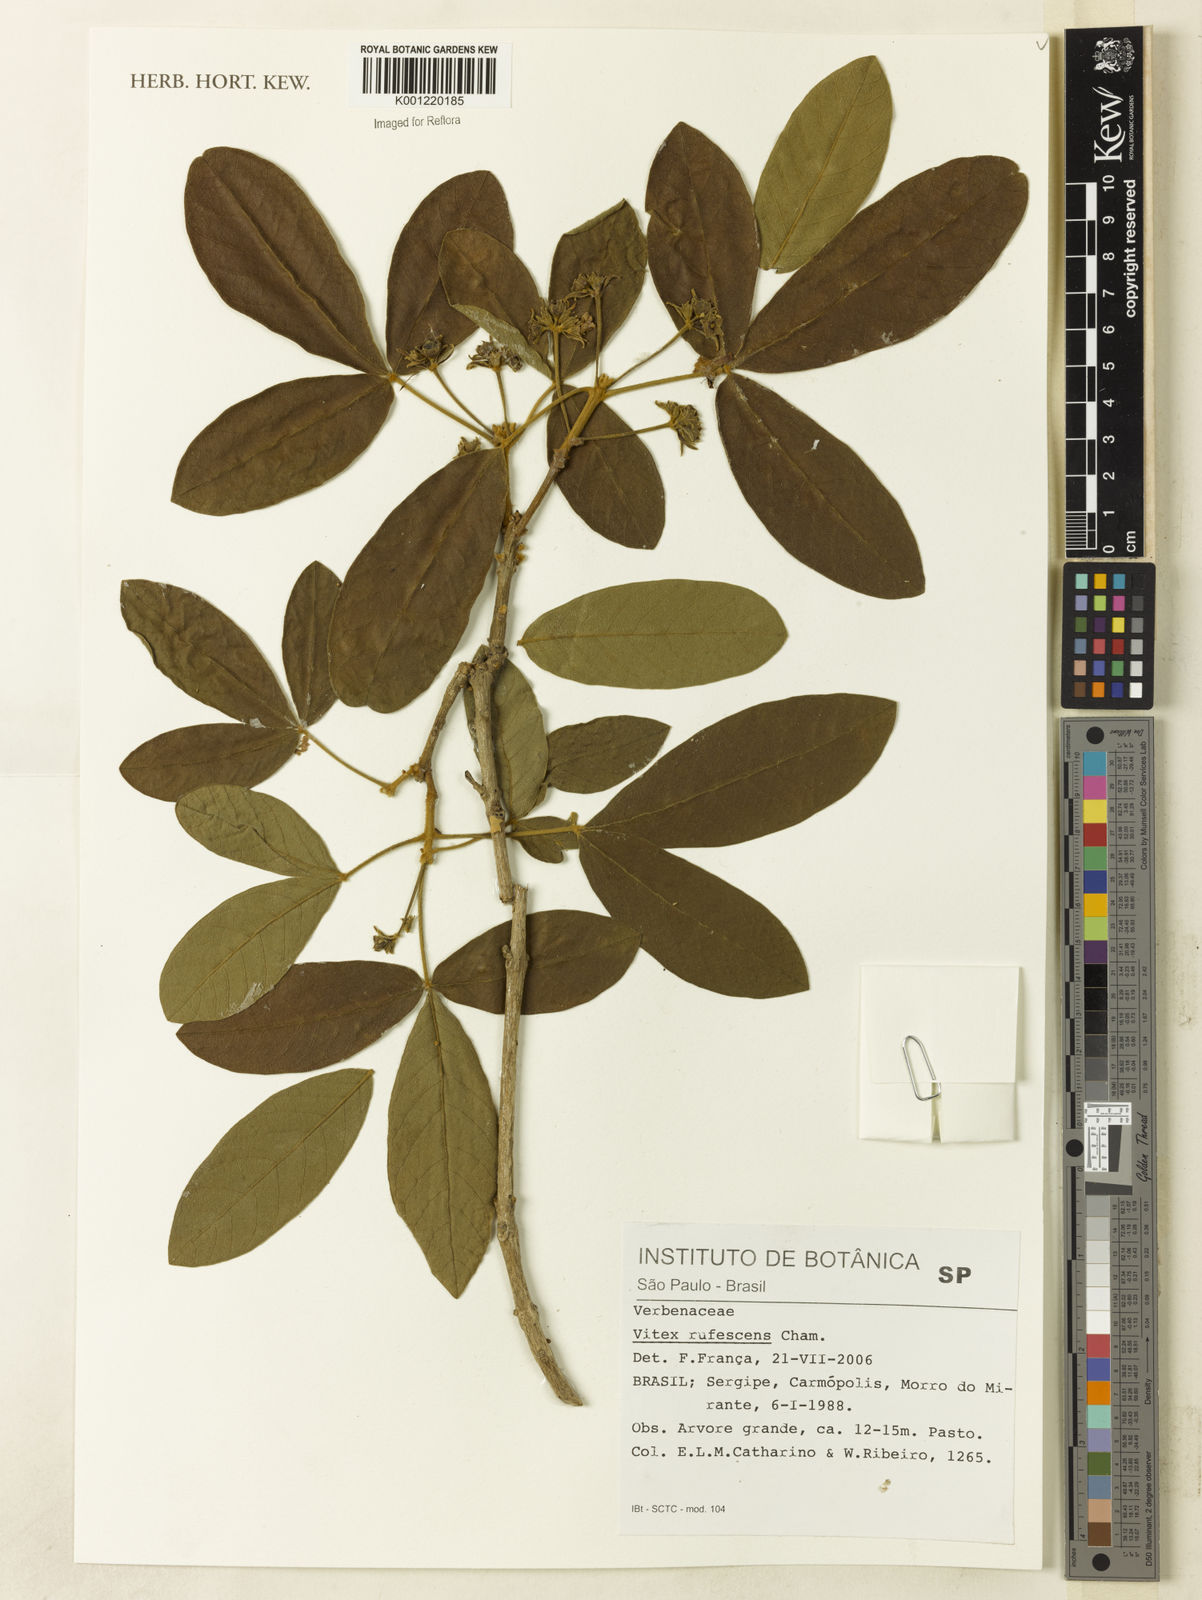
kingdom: Plantae
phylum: Tracheophyta
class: Magnoliopsida
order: Lamiales
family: Lamiaceae
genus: Vitex
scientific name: Vitex rufescens
